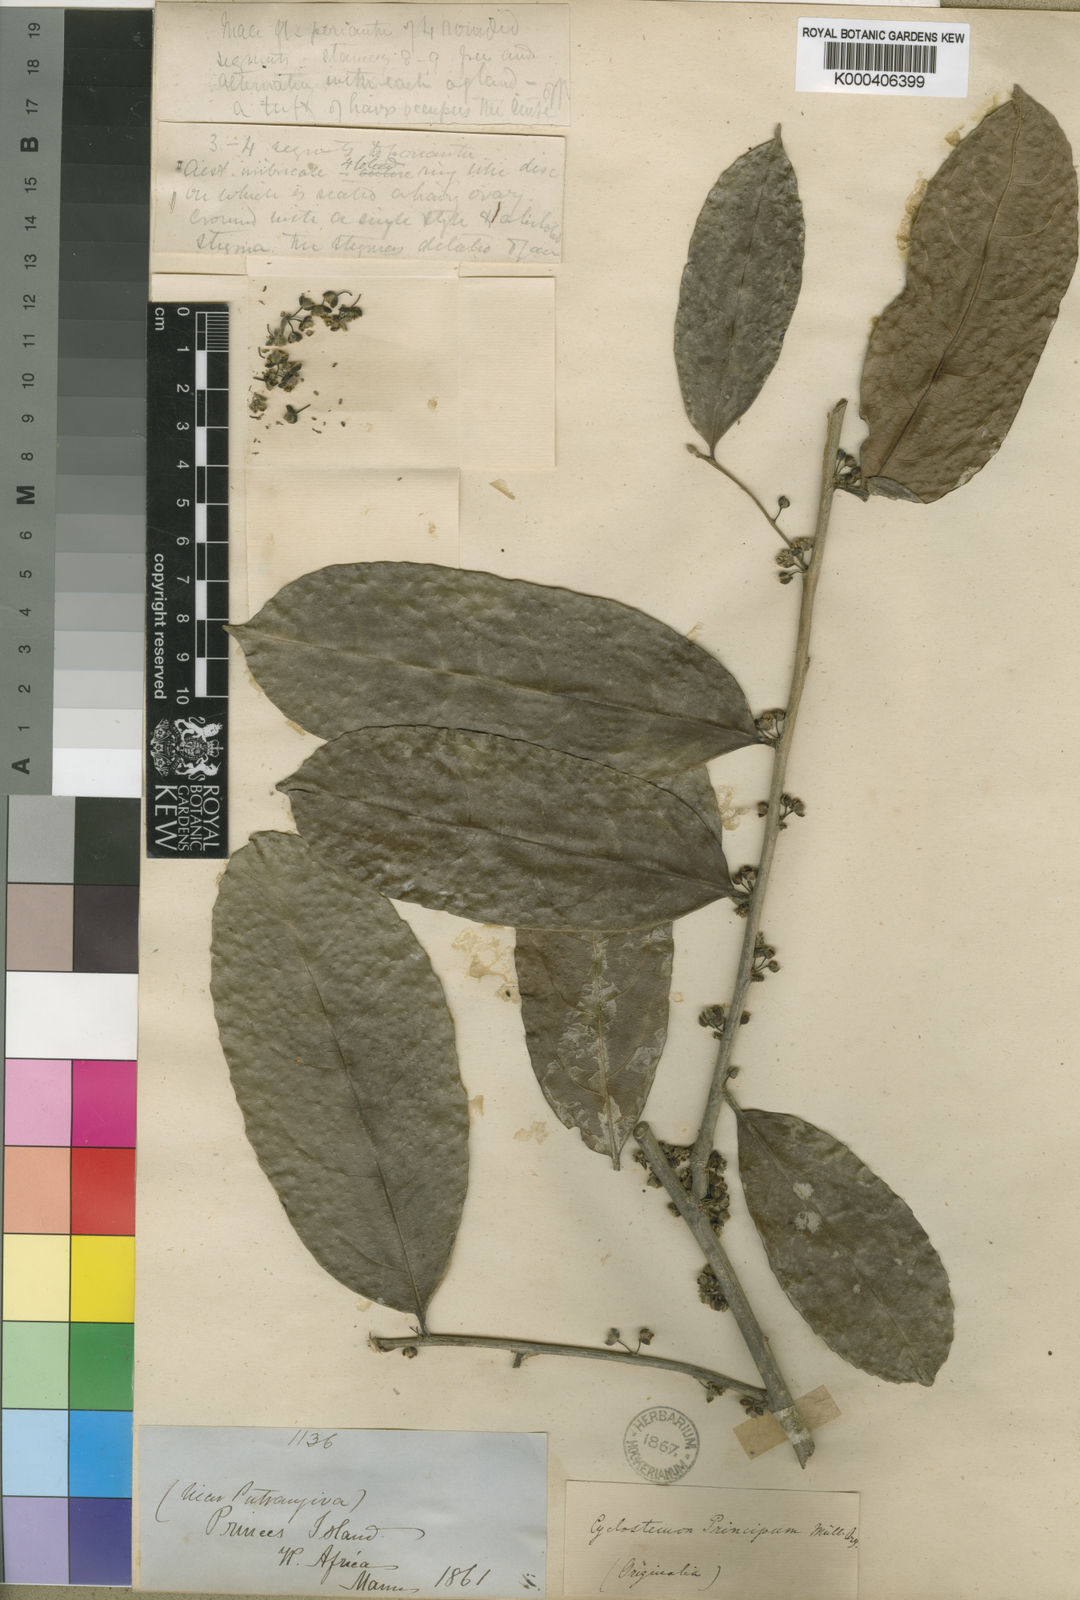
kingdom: Plantae
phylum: Tracheophyta
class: Magnoliopsida
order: Malpighiales
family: Putranjivaceae
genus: Drypetes
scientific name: Drypetes
